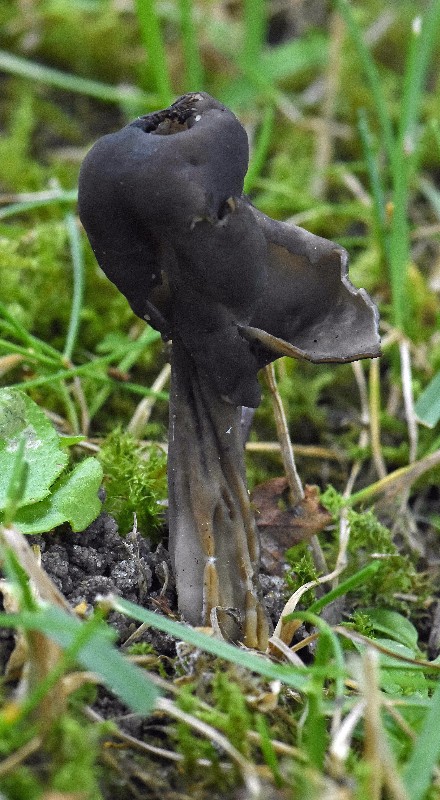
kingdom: Fungi
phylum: Ascomycota
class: Pezizomycetes
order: Pezizales
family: Helvellaceae
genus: Helvella
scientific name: Helvella lacunosa
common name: grubet foldhat
